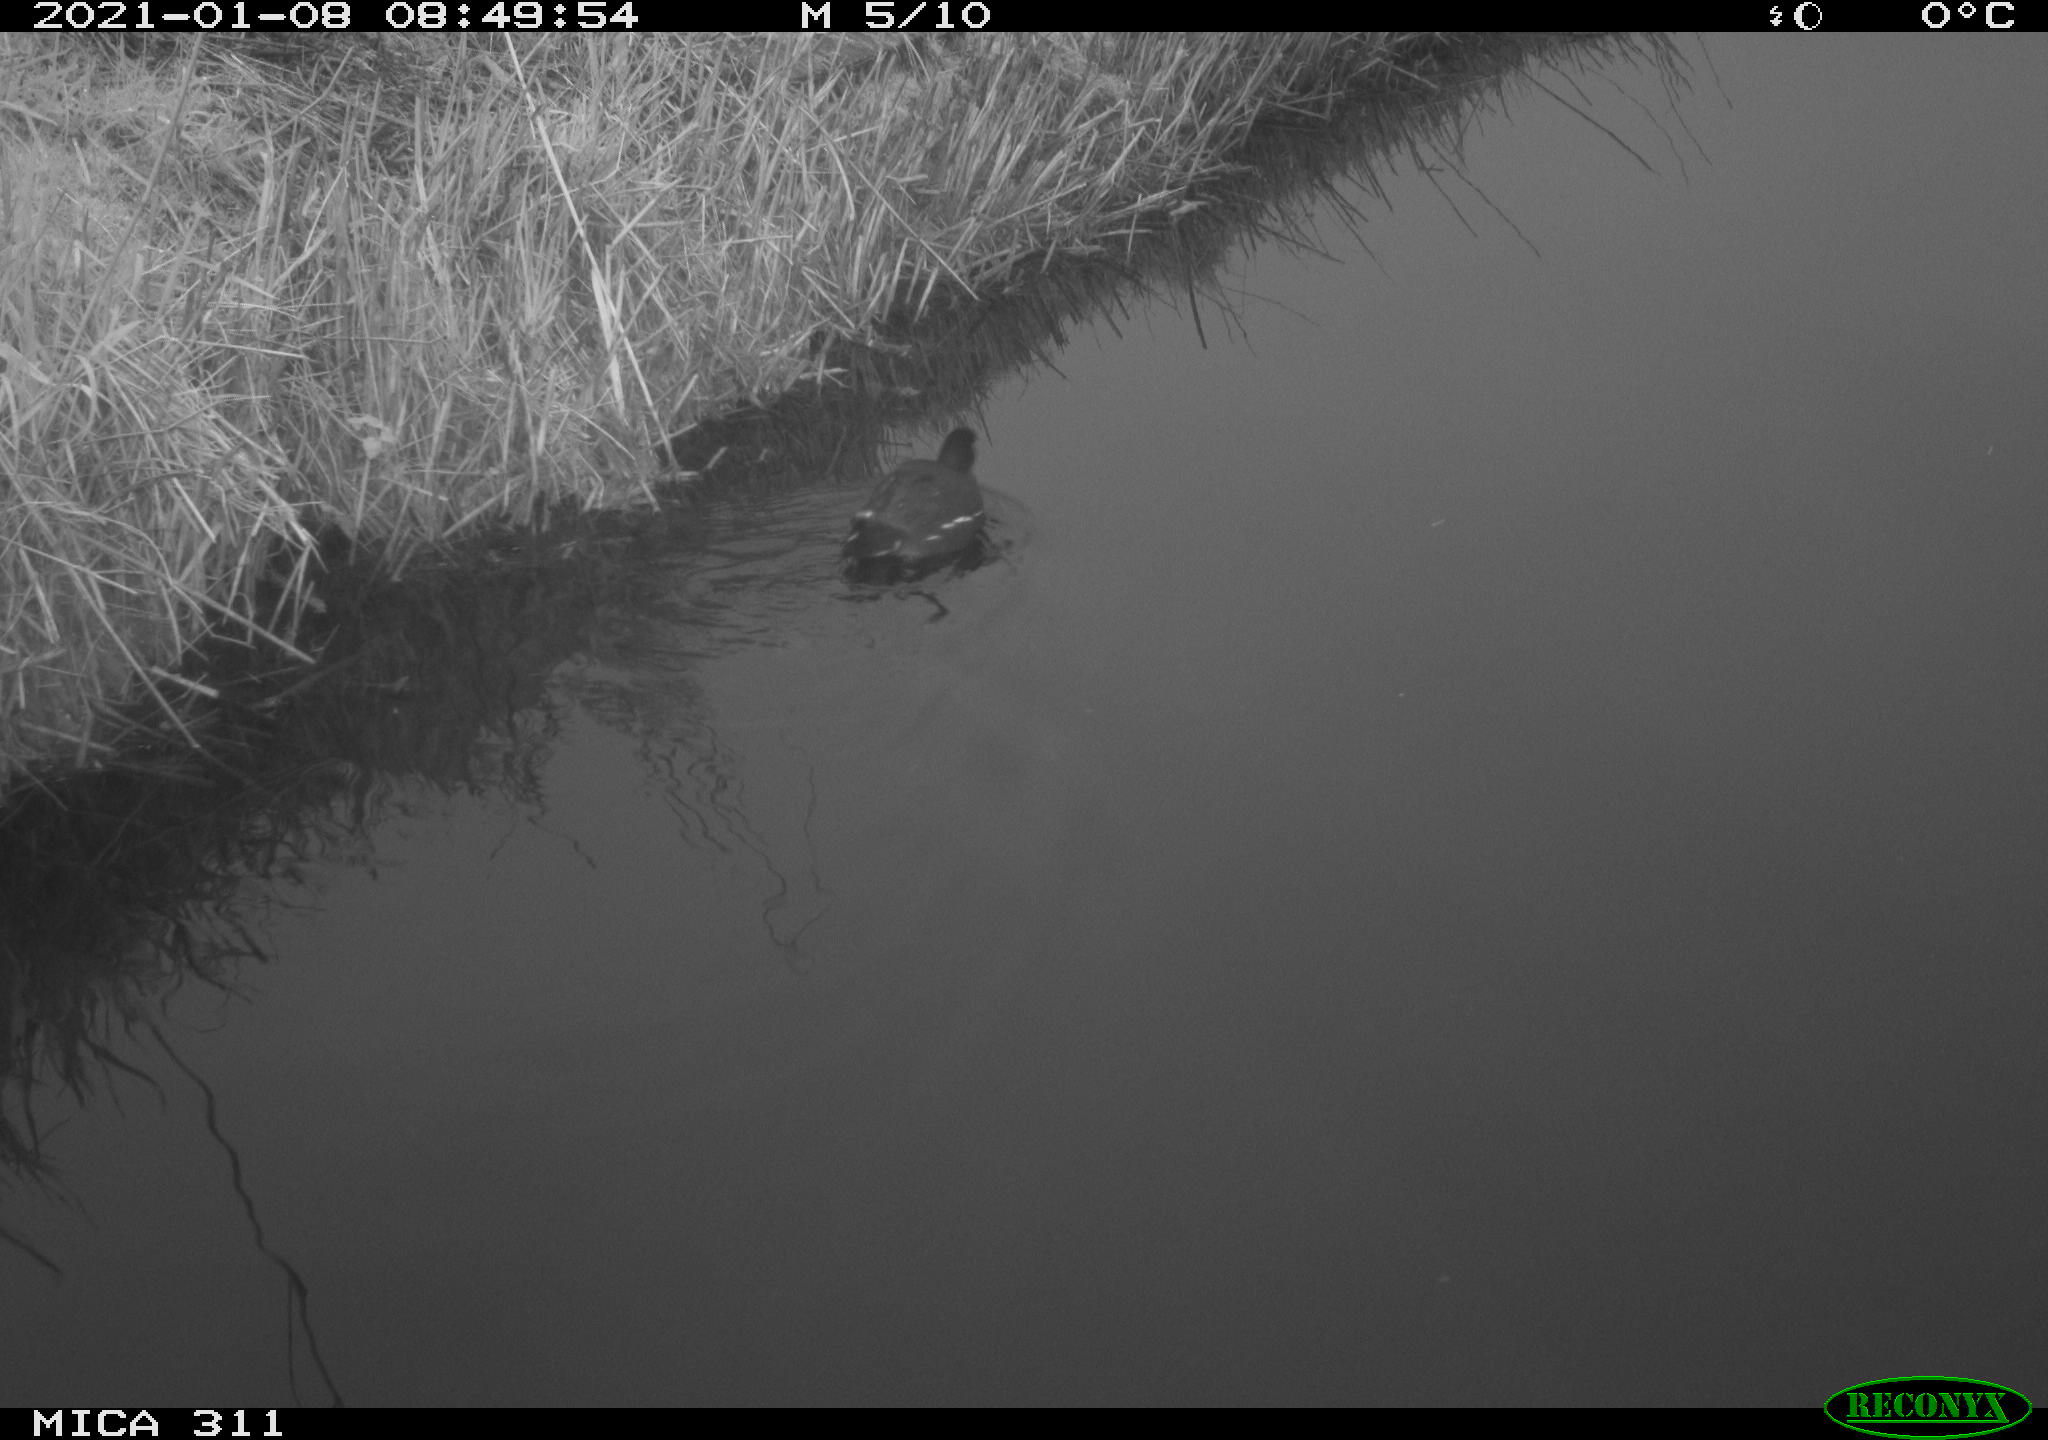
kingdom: Animalia
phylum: Chordata
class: Aves
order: Gruiformes
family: Rallidae
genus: Gallinula
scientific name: Gallinula chloropus
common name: Common moorhen
